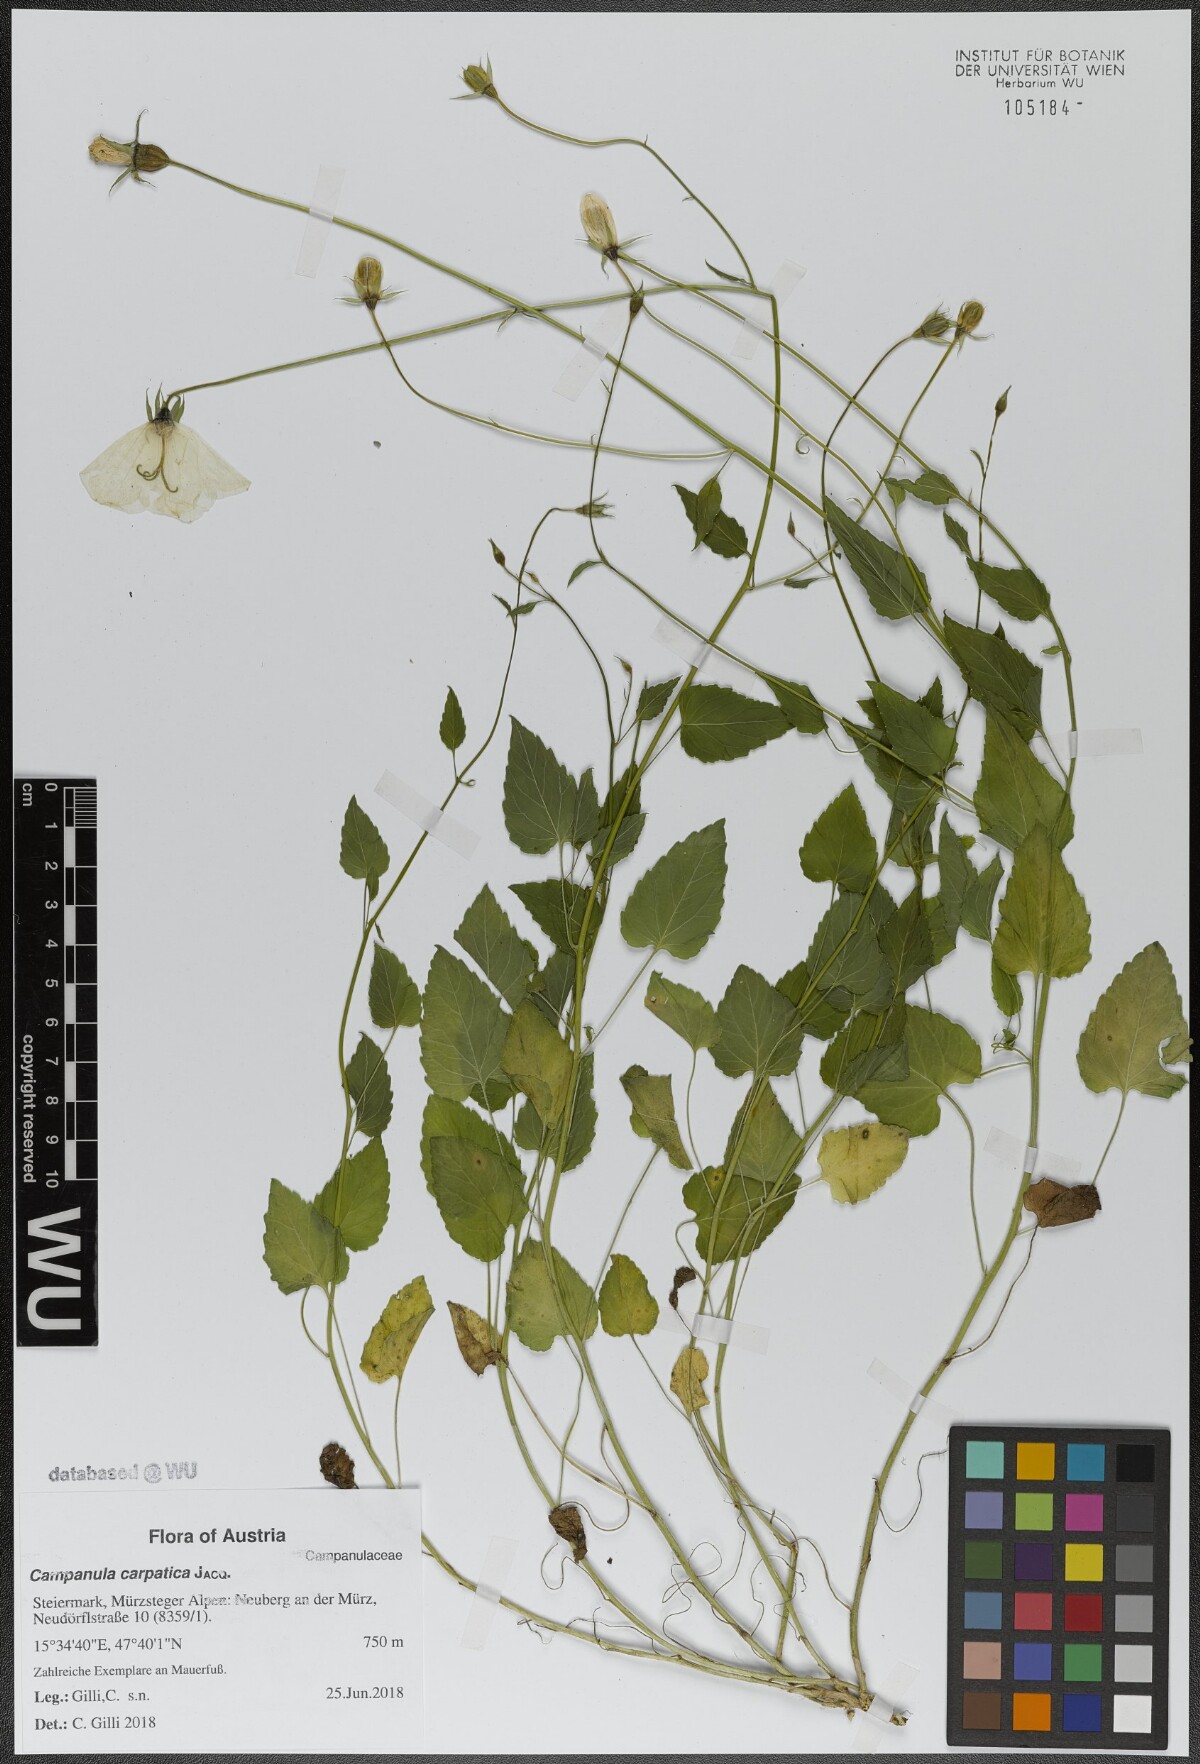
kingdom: Plantae
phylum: Tracheophyta
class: Magnoliopsida
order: Asterales
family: Campanulaceae
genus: Campanula
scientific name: Campanula carpatica
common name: Tussock bellflower
